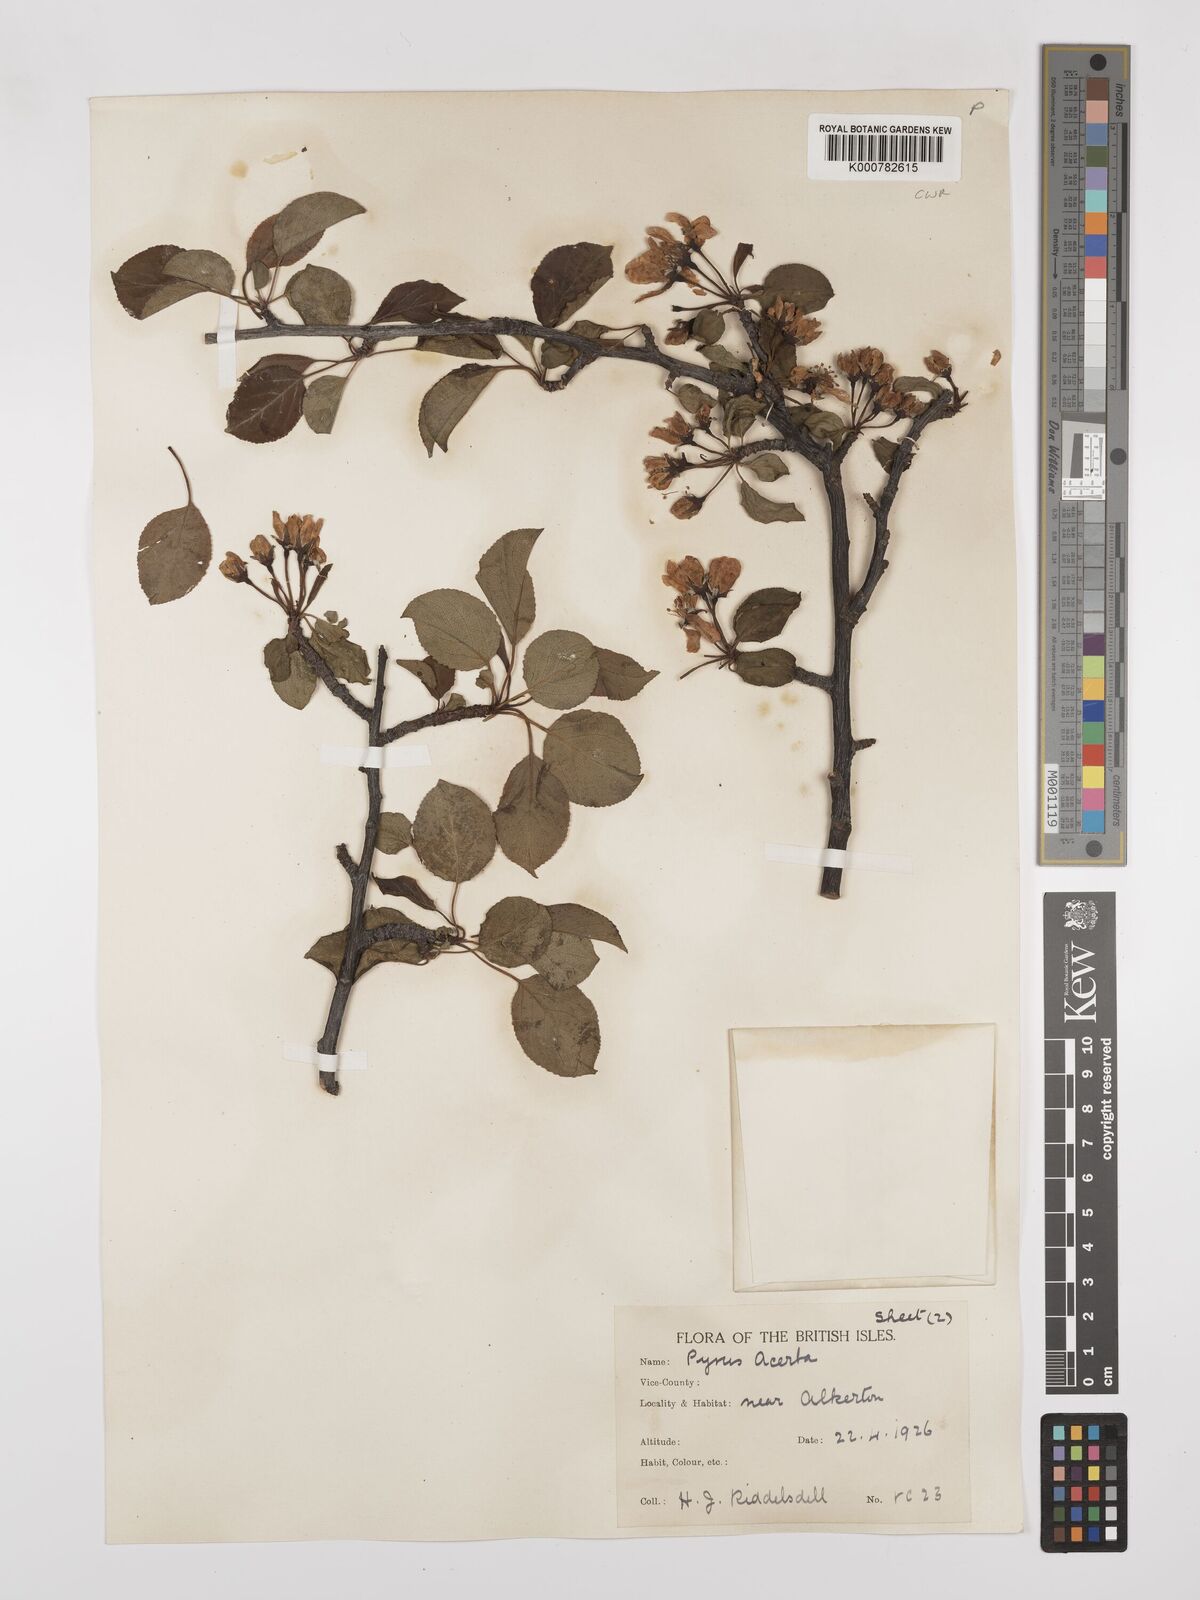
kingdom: Plantae
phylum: Tracheophyta
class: Magnoliopsida
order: Rosales
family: Rosaceae
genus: Malus
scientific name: Malus sylvestris
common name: Crab apple
